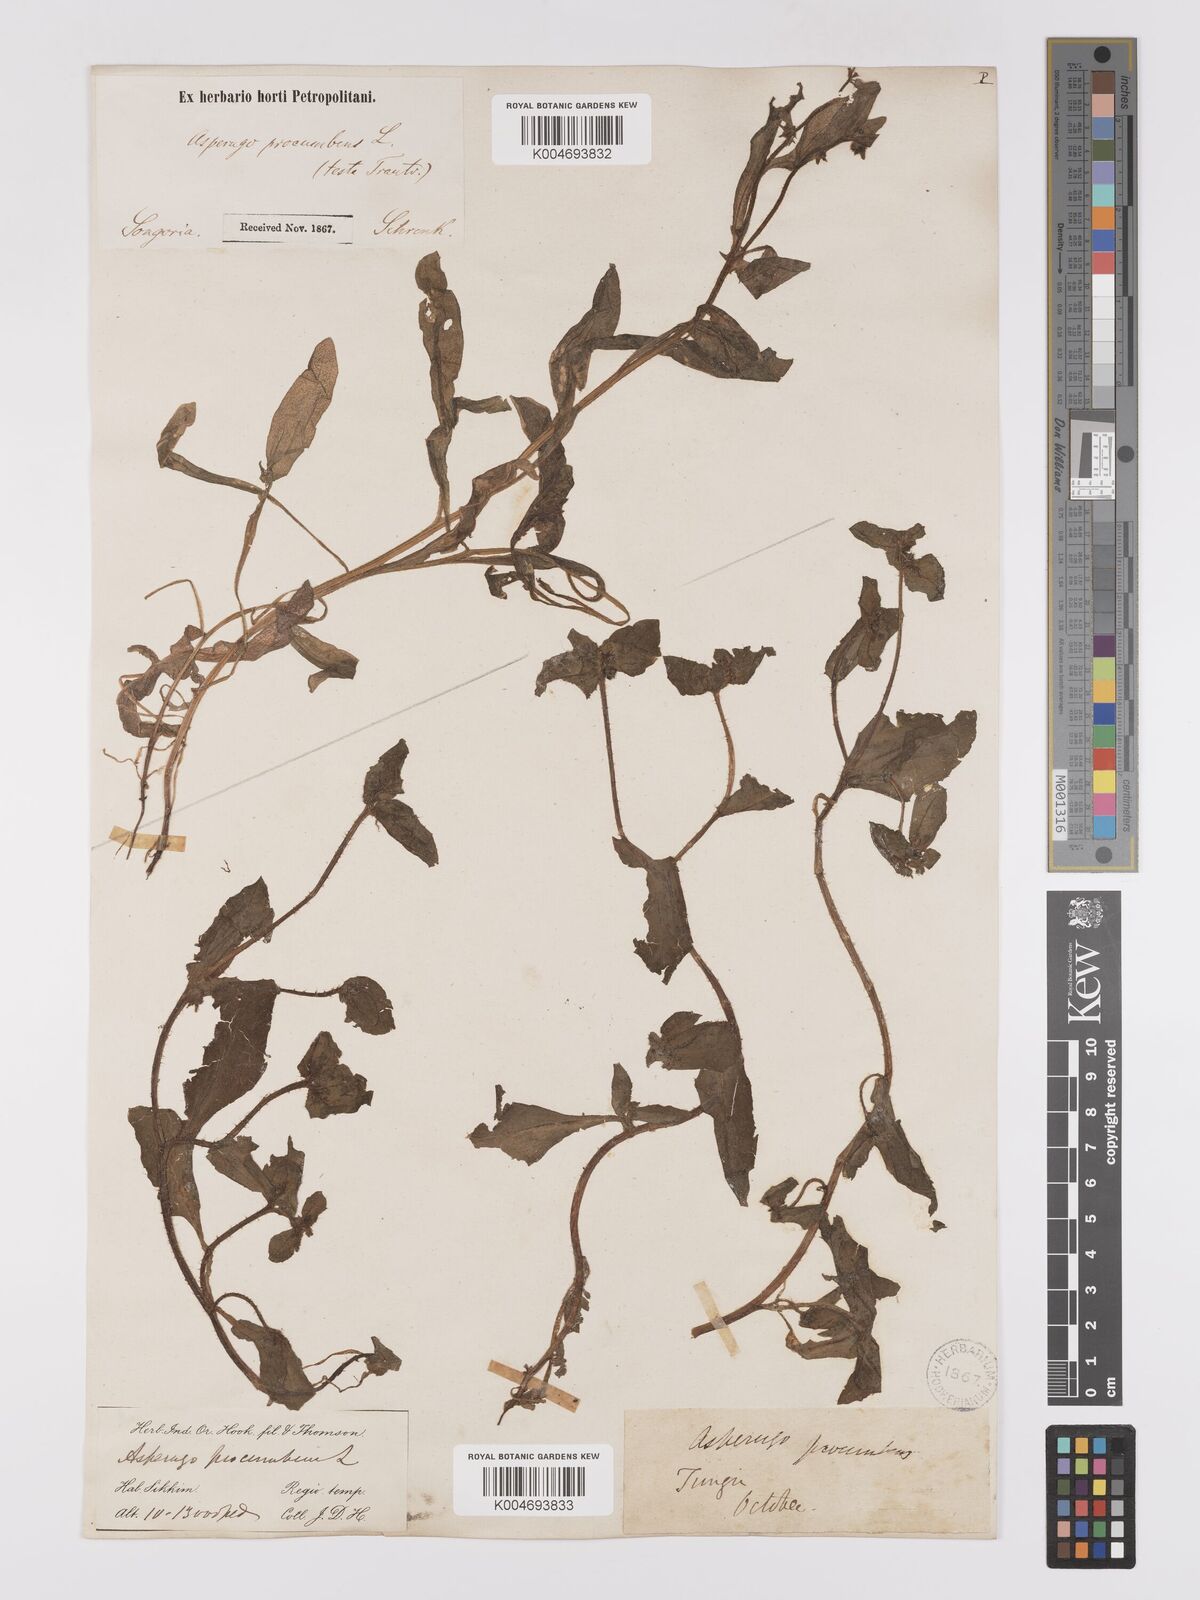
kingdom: Plantae
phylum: Tracheophyta
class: Magnoliopsida
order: Boraginales
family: Boraginaceae
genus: Asperugo
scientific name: Asperugo procumbens
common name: Madwort
